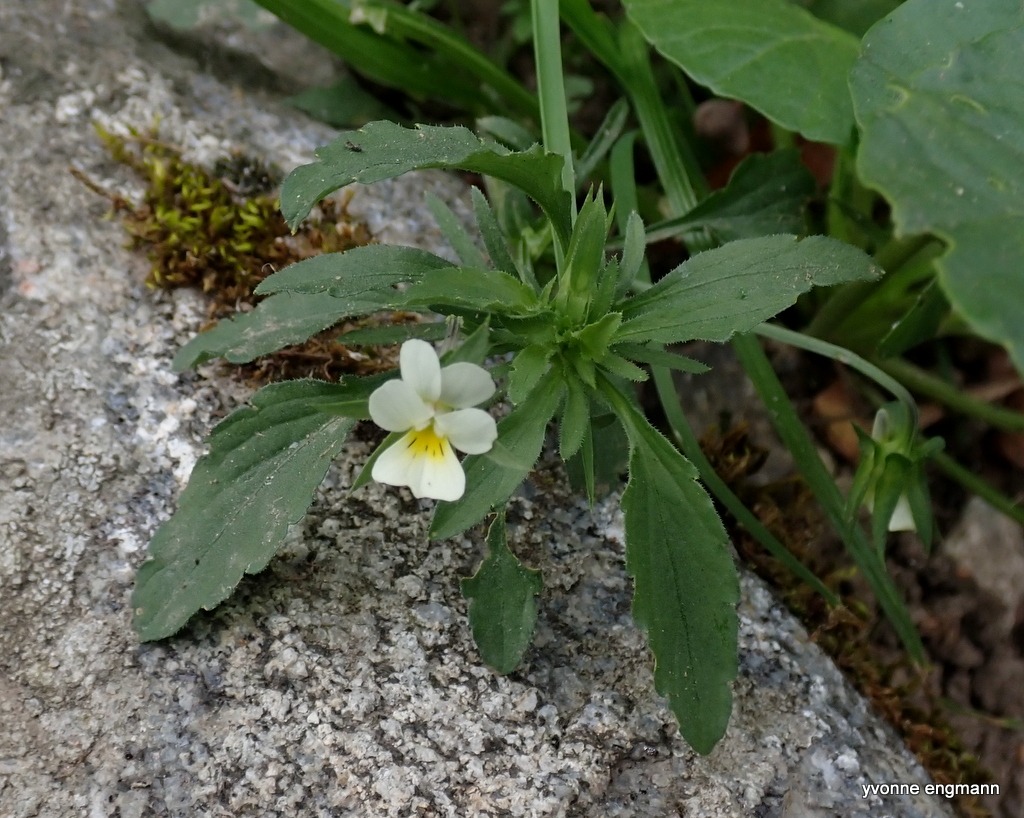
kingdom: Plantae
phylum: Tracheophyta
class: Magnoliopsida
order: Malpighiales
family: Violaceae
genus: Viola
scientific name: Viola arvensis
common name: Ager-stedmoderblomst
